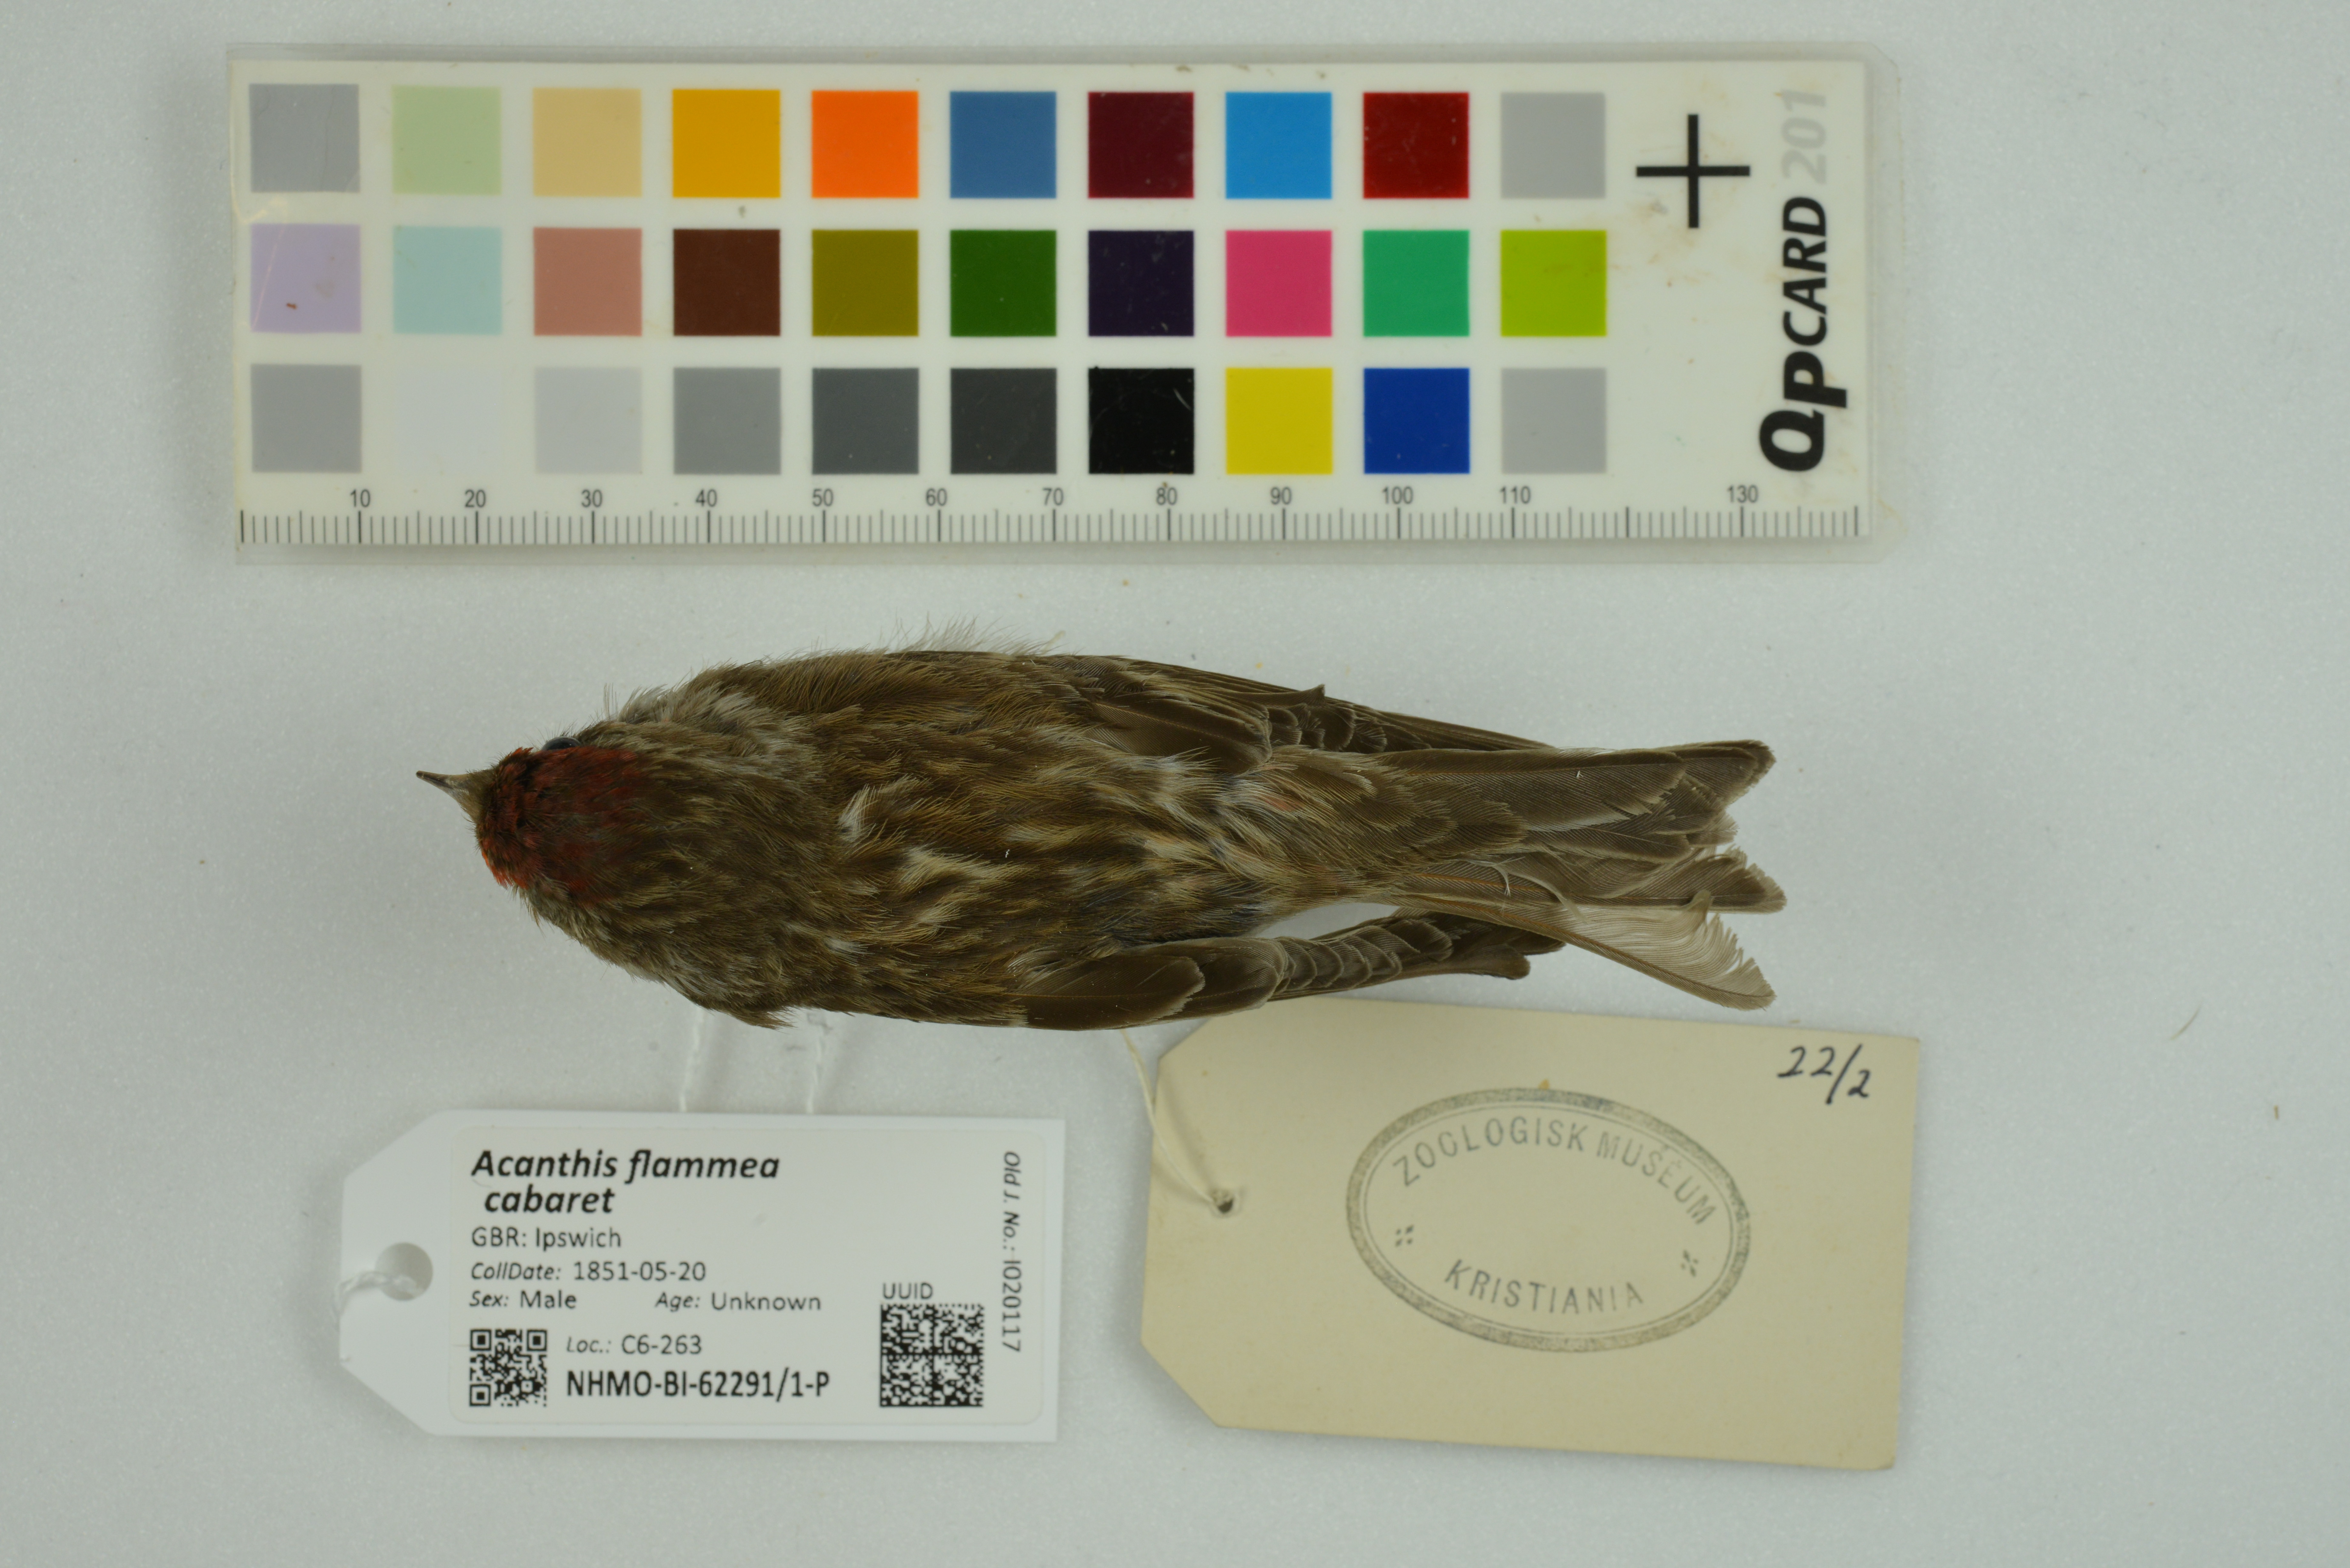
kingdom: Animalia
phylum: Chordata
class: Aves
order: Passeriformes
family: Fringillidae
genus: Acanthis
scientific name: Acanthis flammea
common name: Common redpoll
